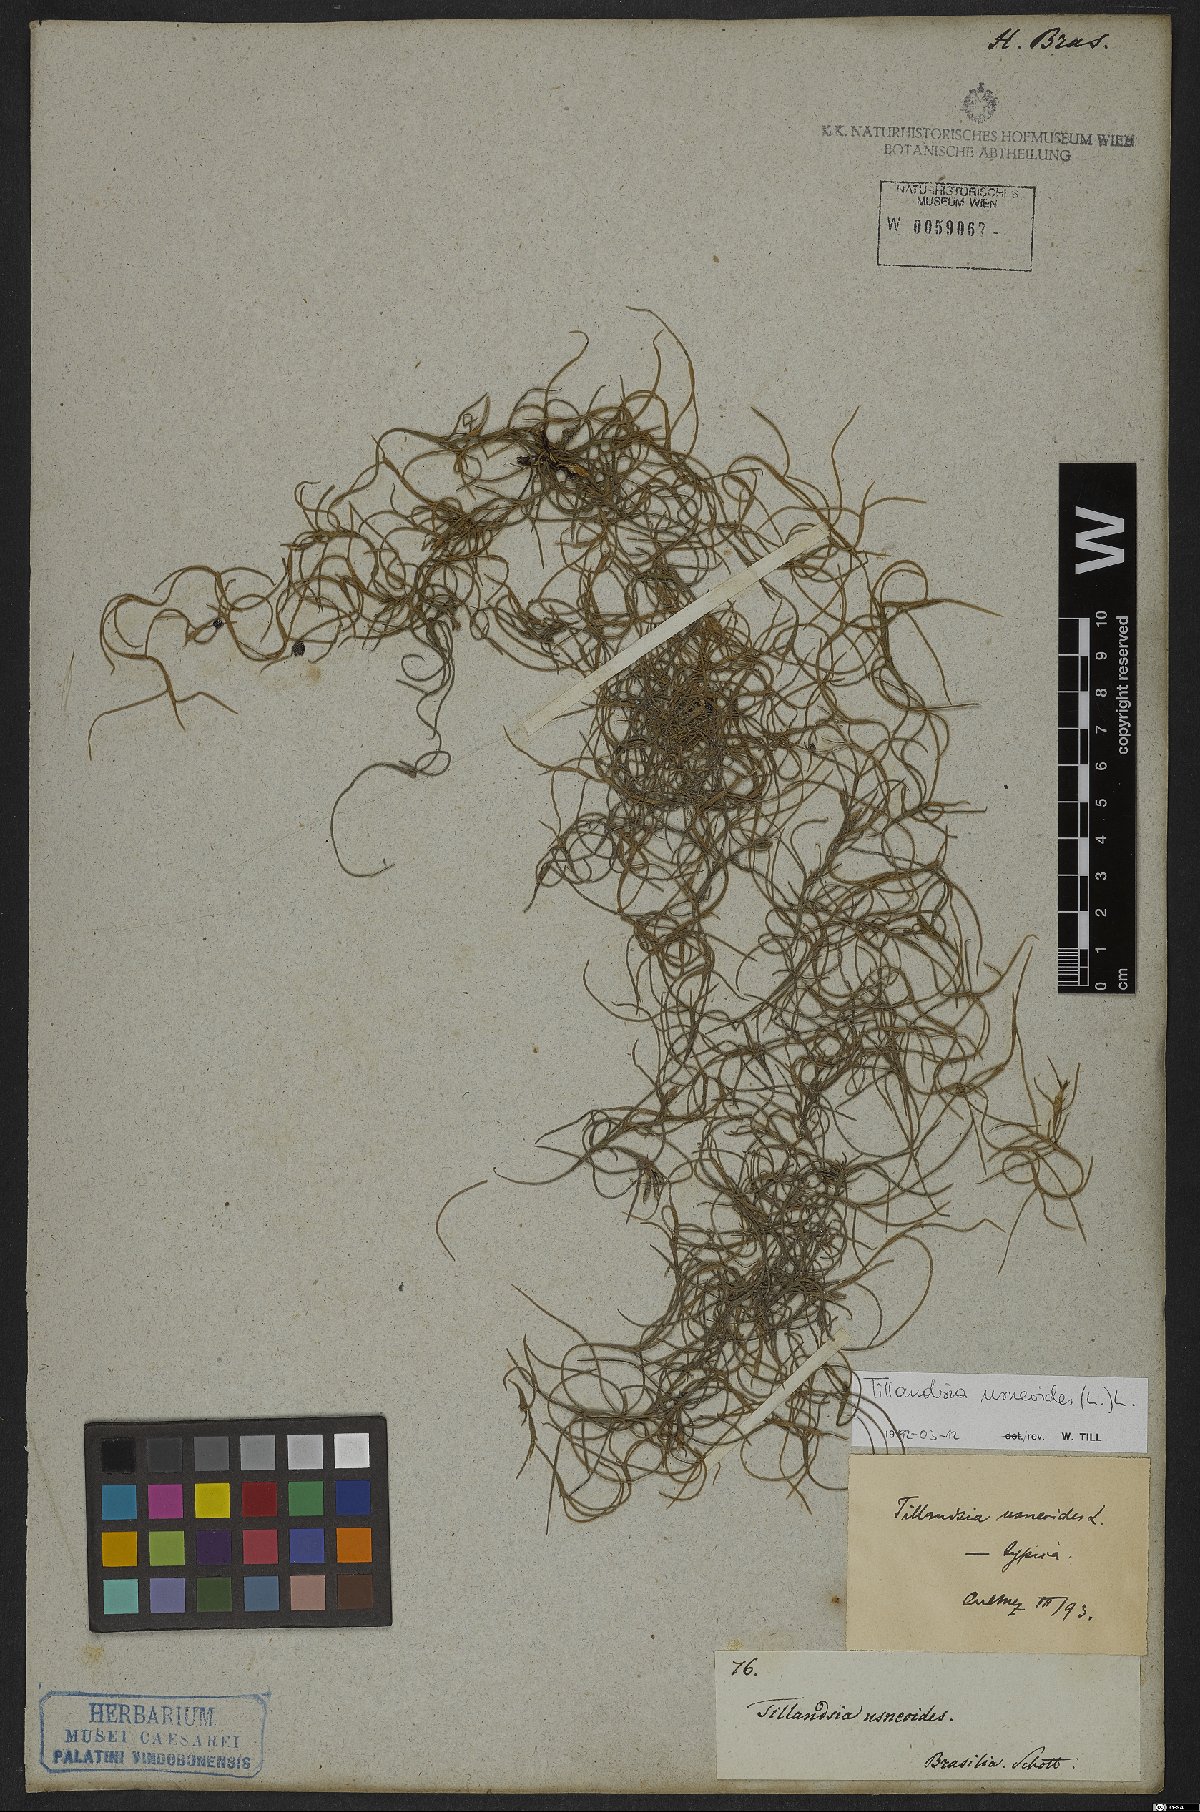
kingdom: Plantae
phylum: Tracheophyta
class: Liliopsida
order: Poales
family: Bromeliaceae
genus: Tillandsia
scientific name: Tillandsia usneoides
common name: Spanish moss
